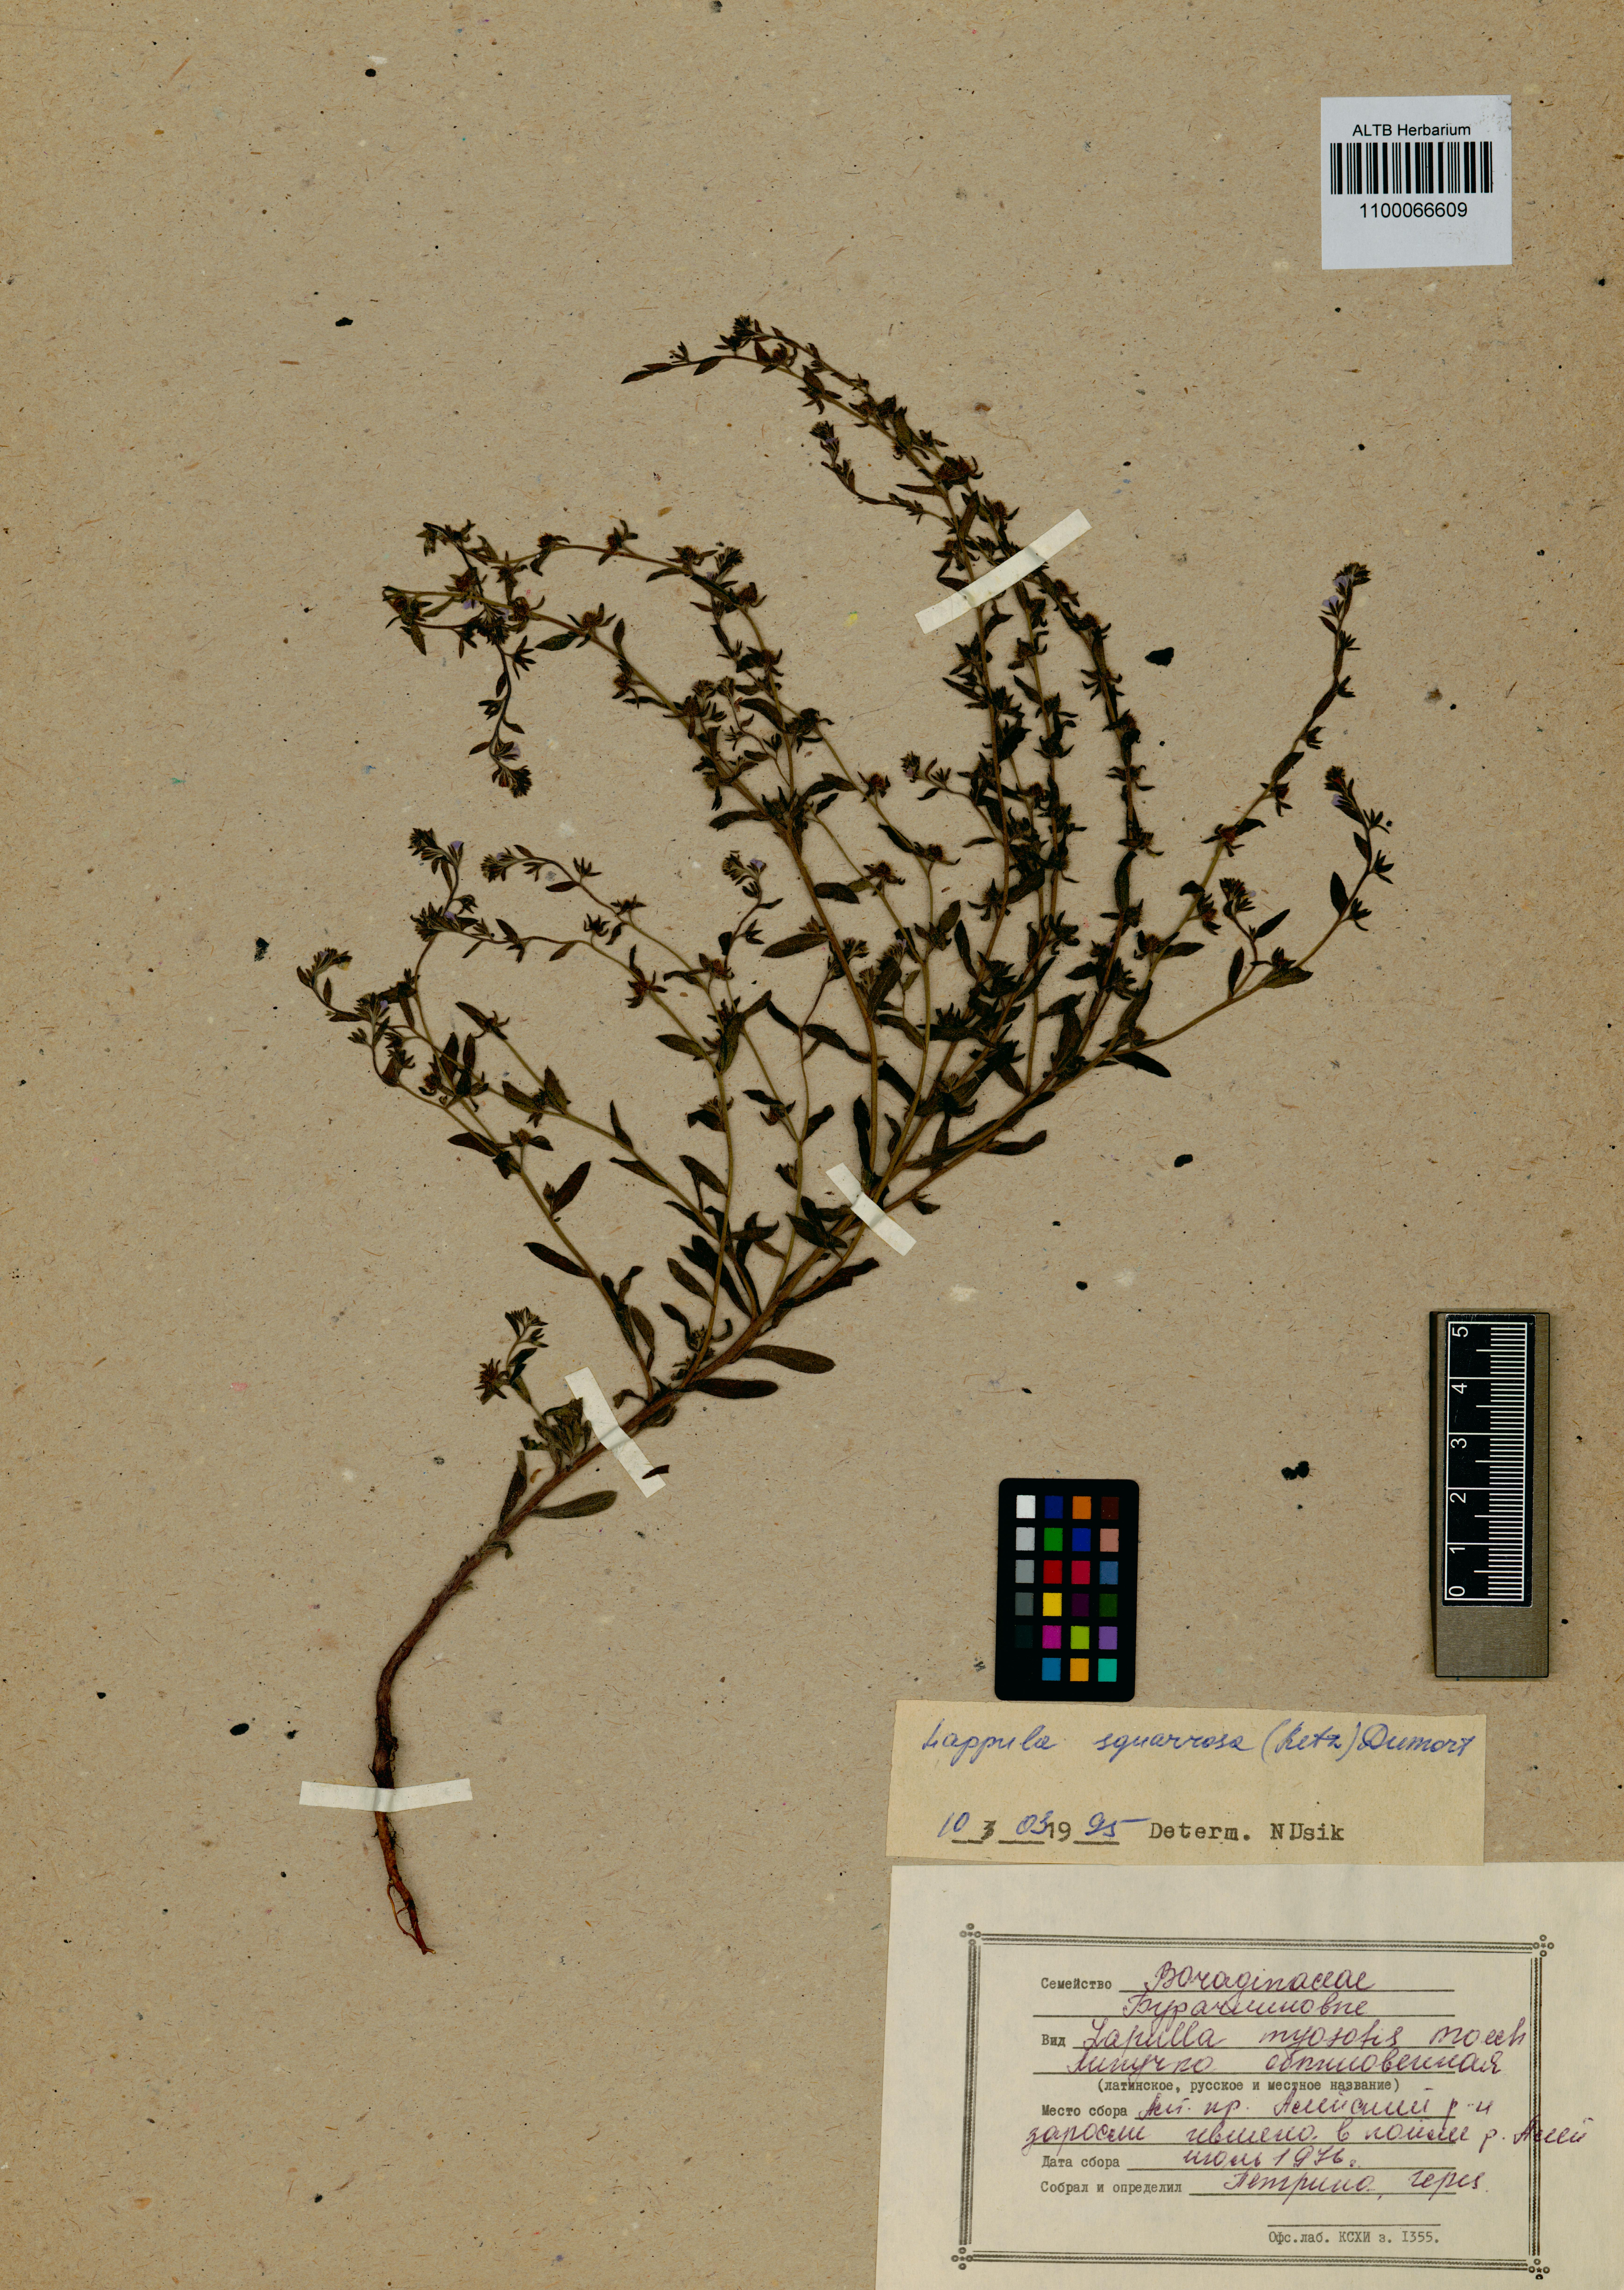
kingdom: Plantae
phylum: Tracheophyta
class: Magnoliopsida
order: Boraginales
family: Boraginaceae
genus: Lappula
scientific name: Lappula squarrosa
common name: European stickseed
